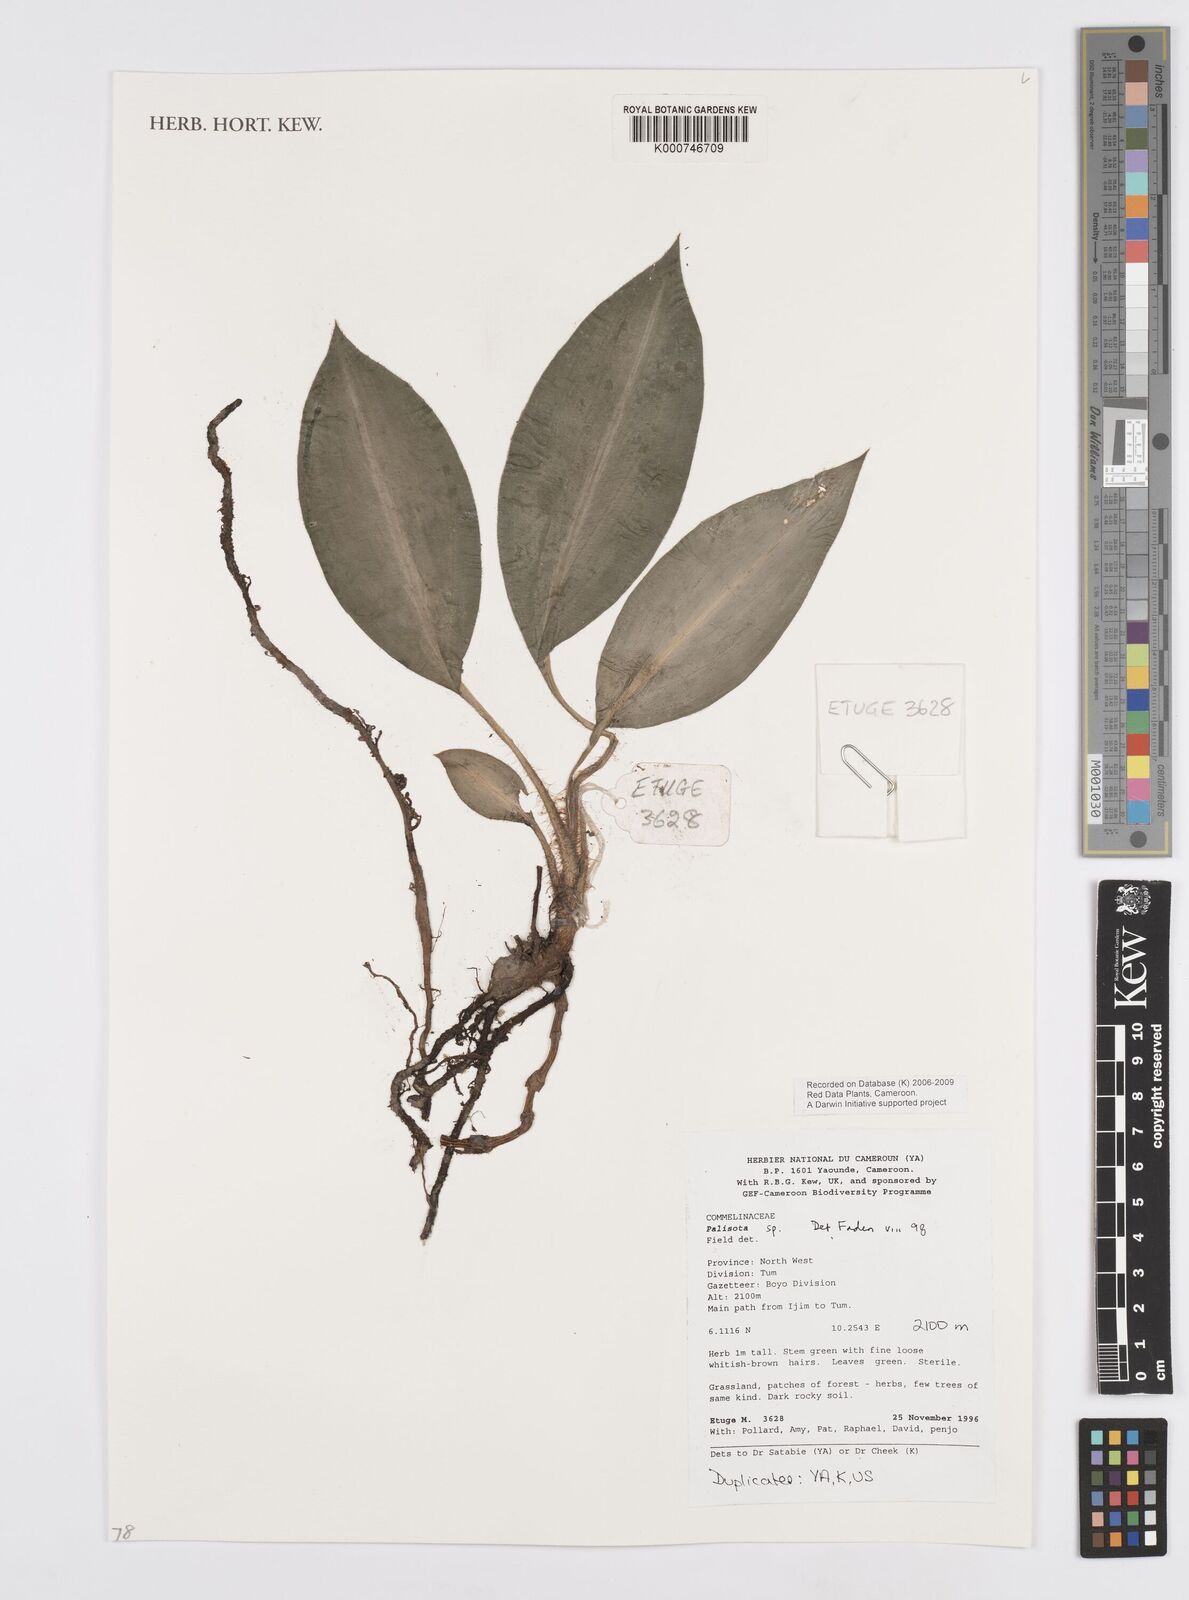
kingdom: Plantae
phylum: Tracheophyta
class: Liliopsida
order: Commelinales
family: Commelinaceae
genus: Palisota
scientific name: Palisota
